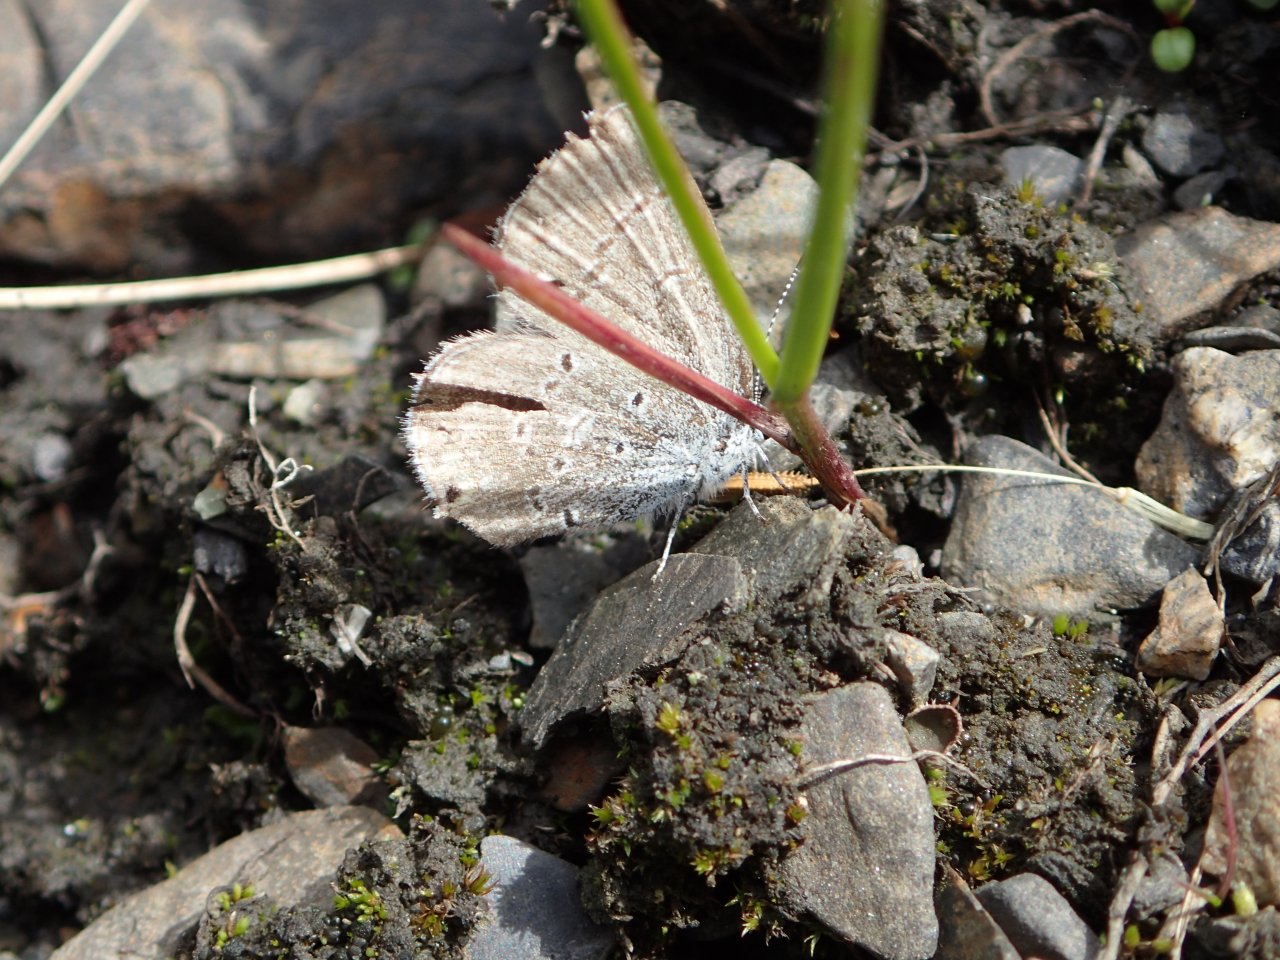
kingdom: Animalia
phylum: Arthropoda
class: Insecta
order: Lepidoptera
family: Lycaenidae
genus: Plebejus
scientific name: Plebejus saepiolus
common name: Greenish Blue
